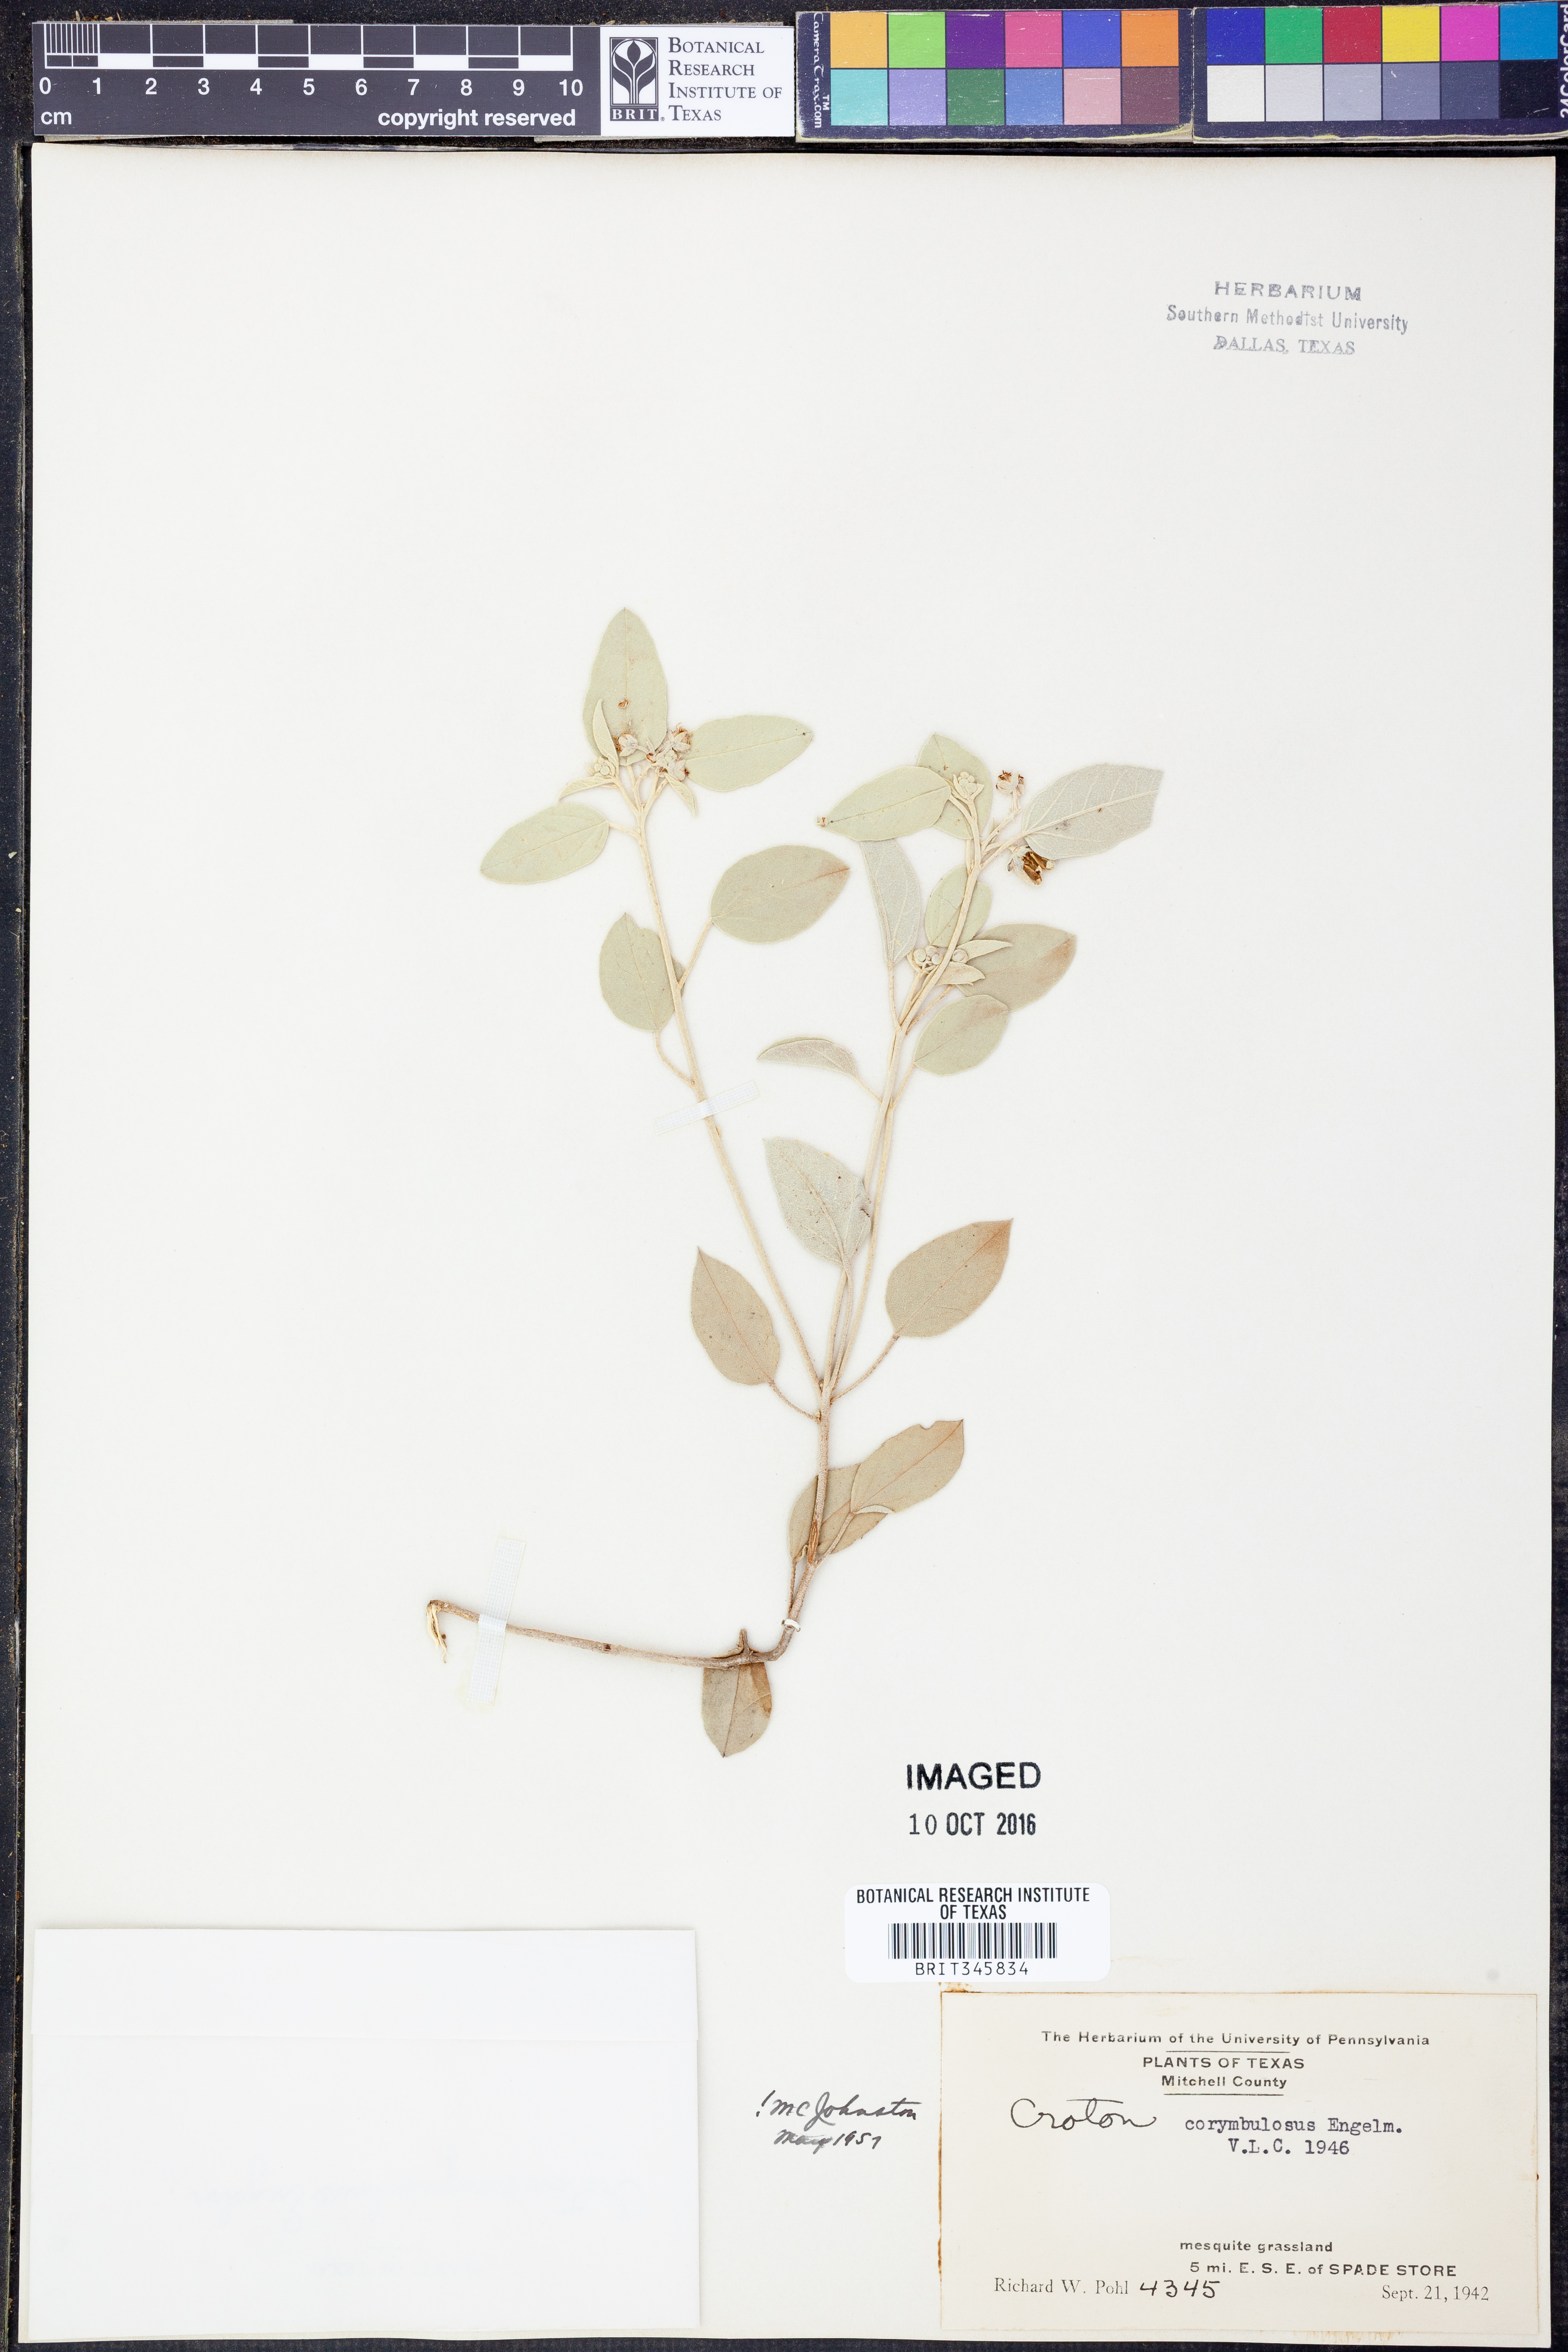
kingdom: Plantae
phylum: Tracheophyta
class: Magnoliopsida
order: Malpighiales
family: Euphorbiaceae
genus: Croton
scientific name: Croton pottsii
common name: Leatherweed
